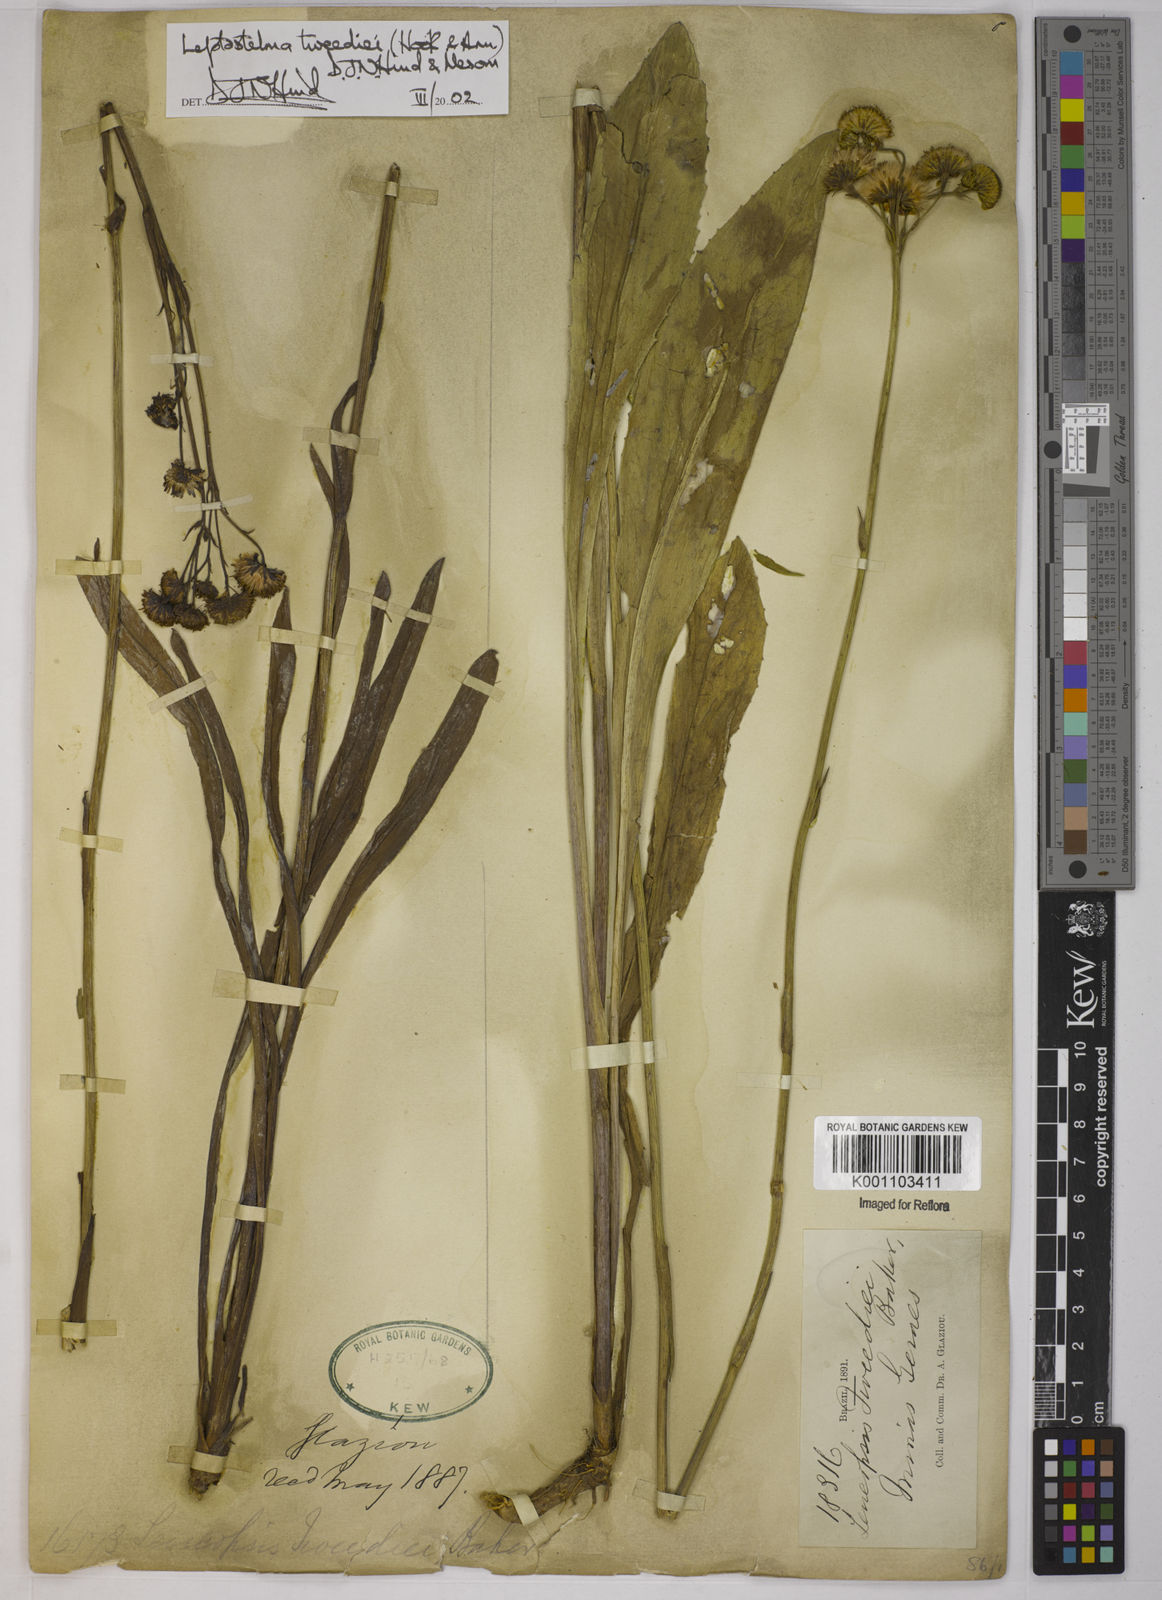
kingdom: Plantae
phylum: Tracheophyta
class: Magnoliopsida
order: Asterales
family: Asteraceae
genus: Leptostelma
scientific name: Leptostelma tweediei
